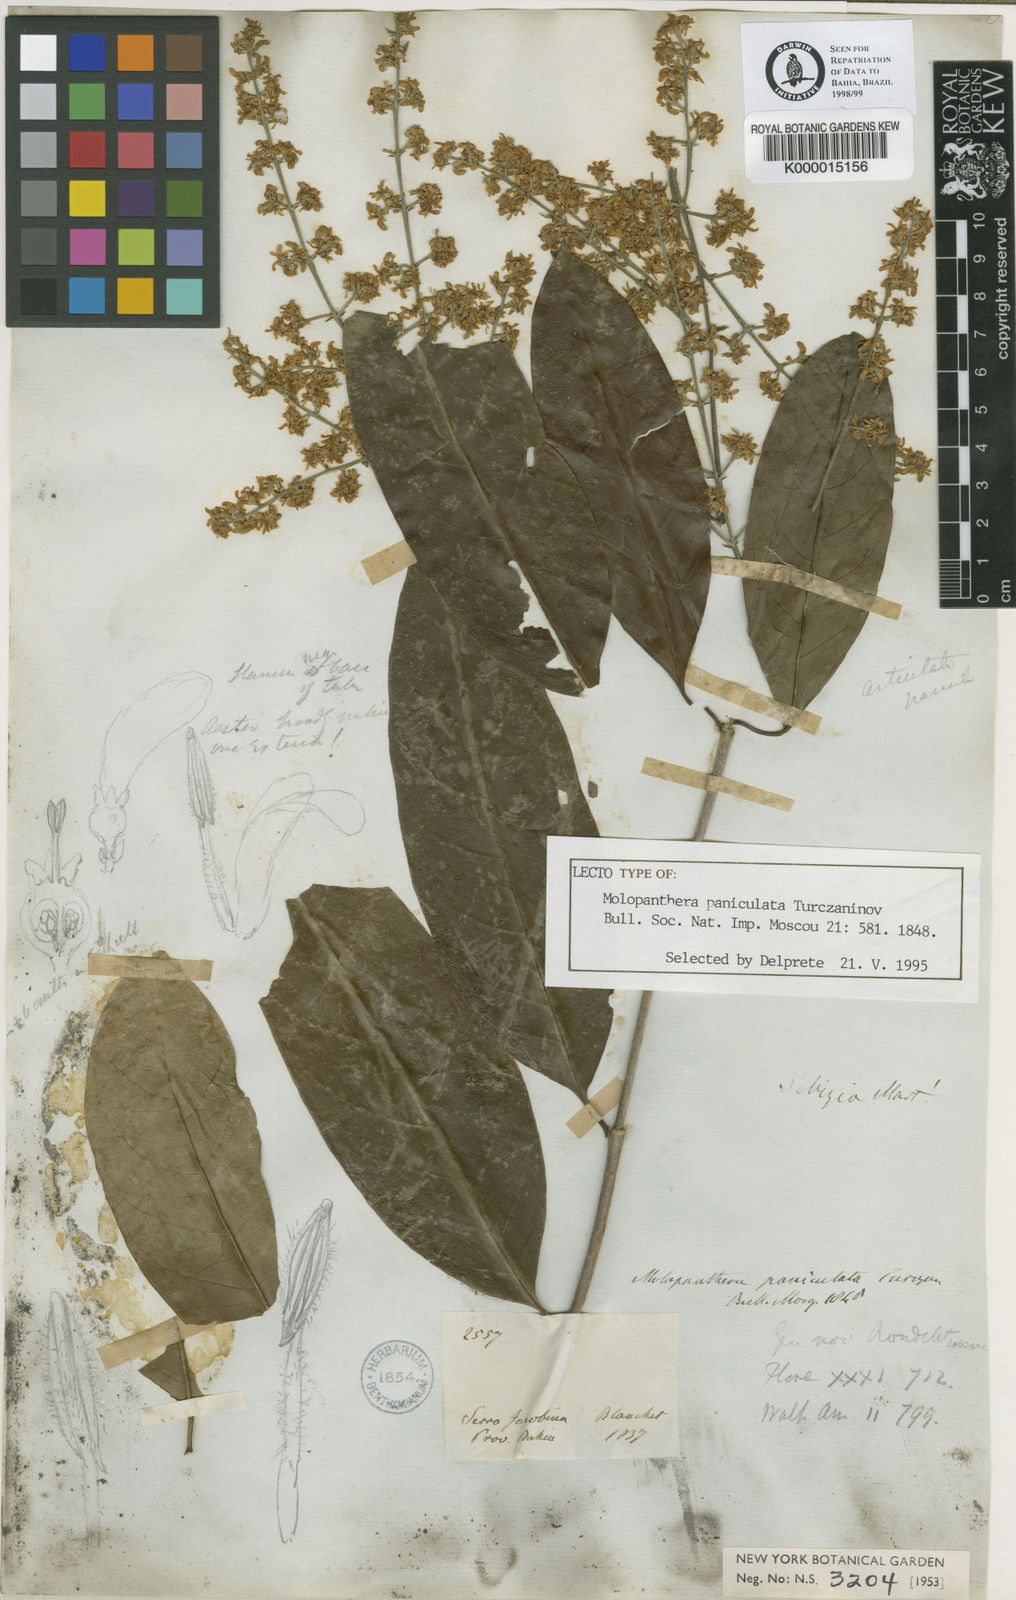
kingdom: Plantae
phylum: Tracheophyta
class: Magnoliopsida
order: Gentianales
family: Rubiaceae
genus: Molopanthera
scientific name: Molopanthera paniculata
